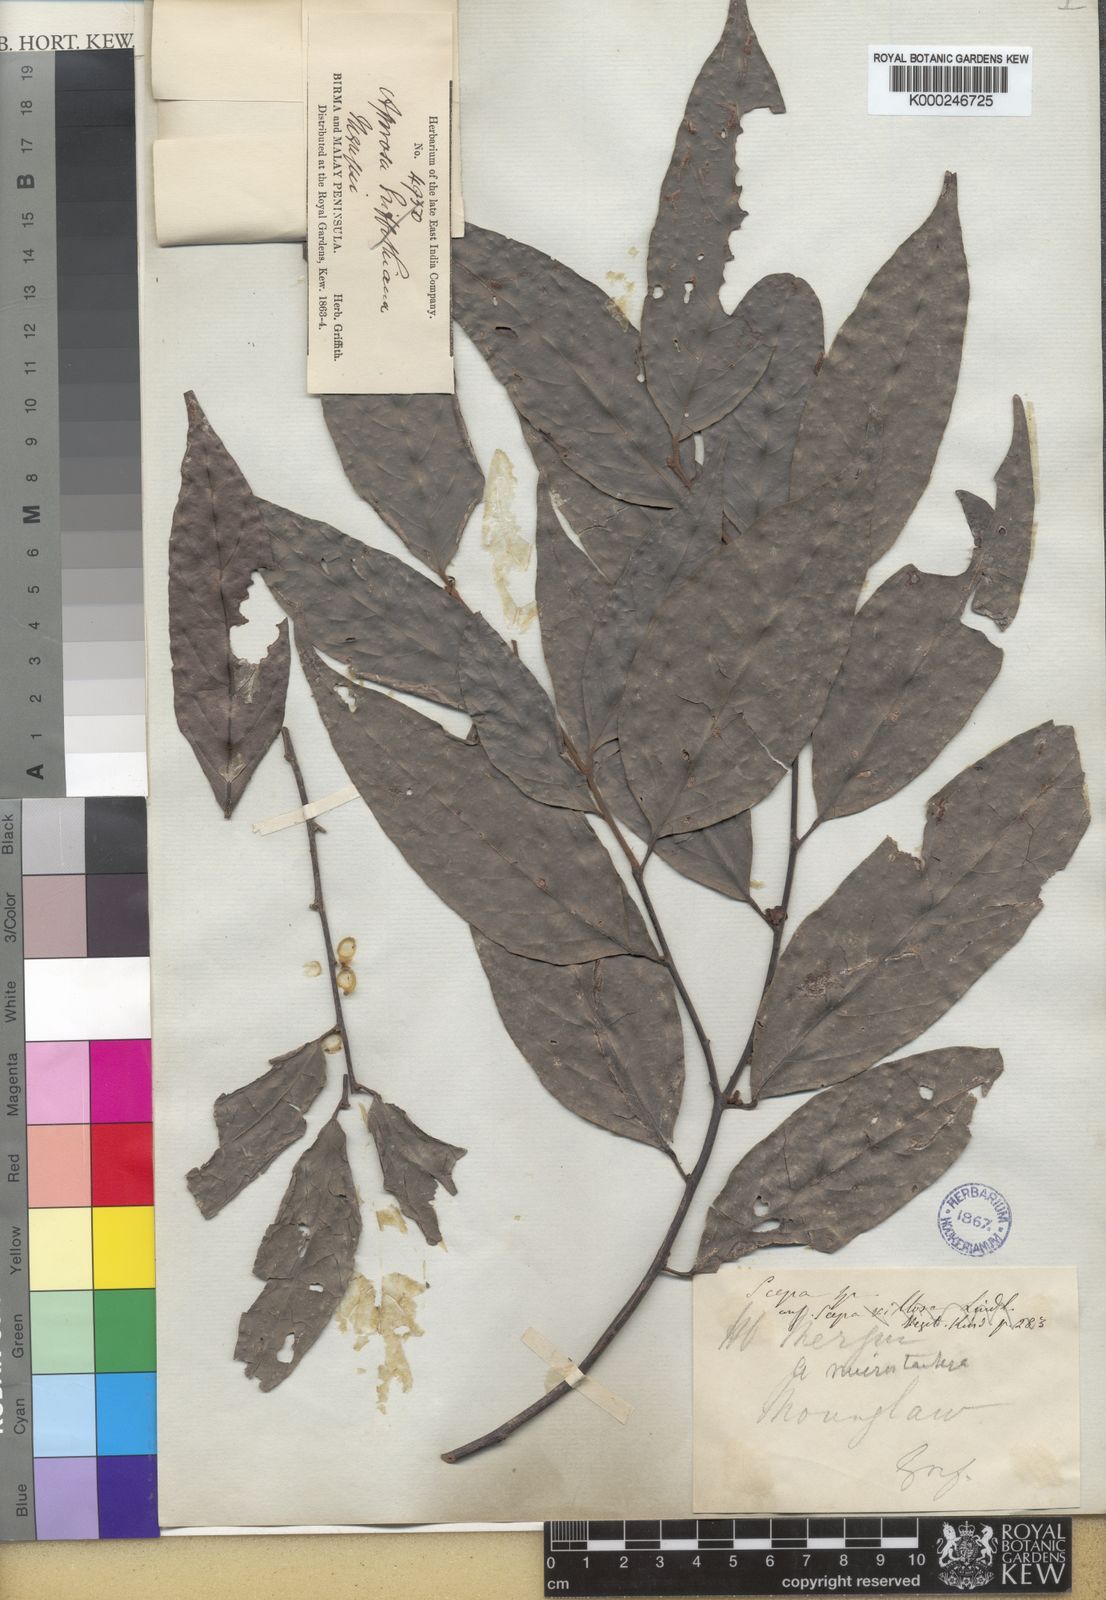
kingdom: Plantae
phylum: Tracheophyta
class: Magnoliopsida
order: Malpighiales
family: Phyllanthaceae
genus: Aporosa
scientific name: Aporosa
